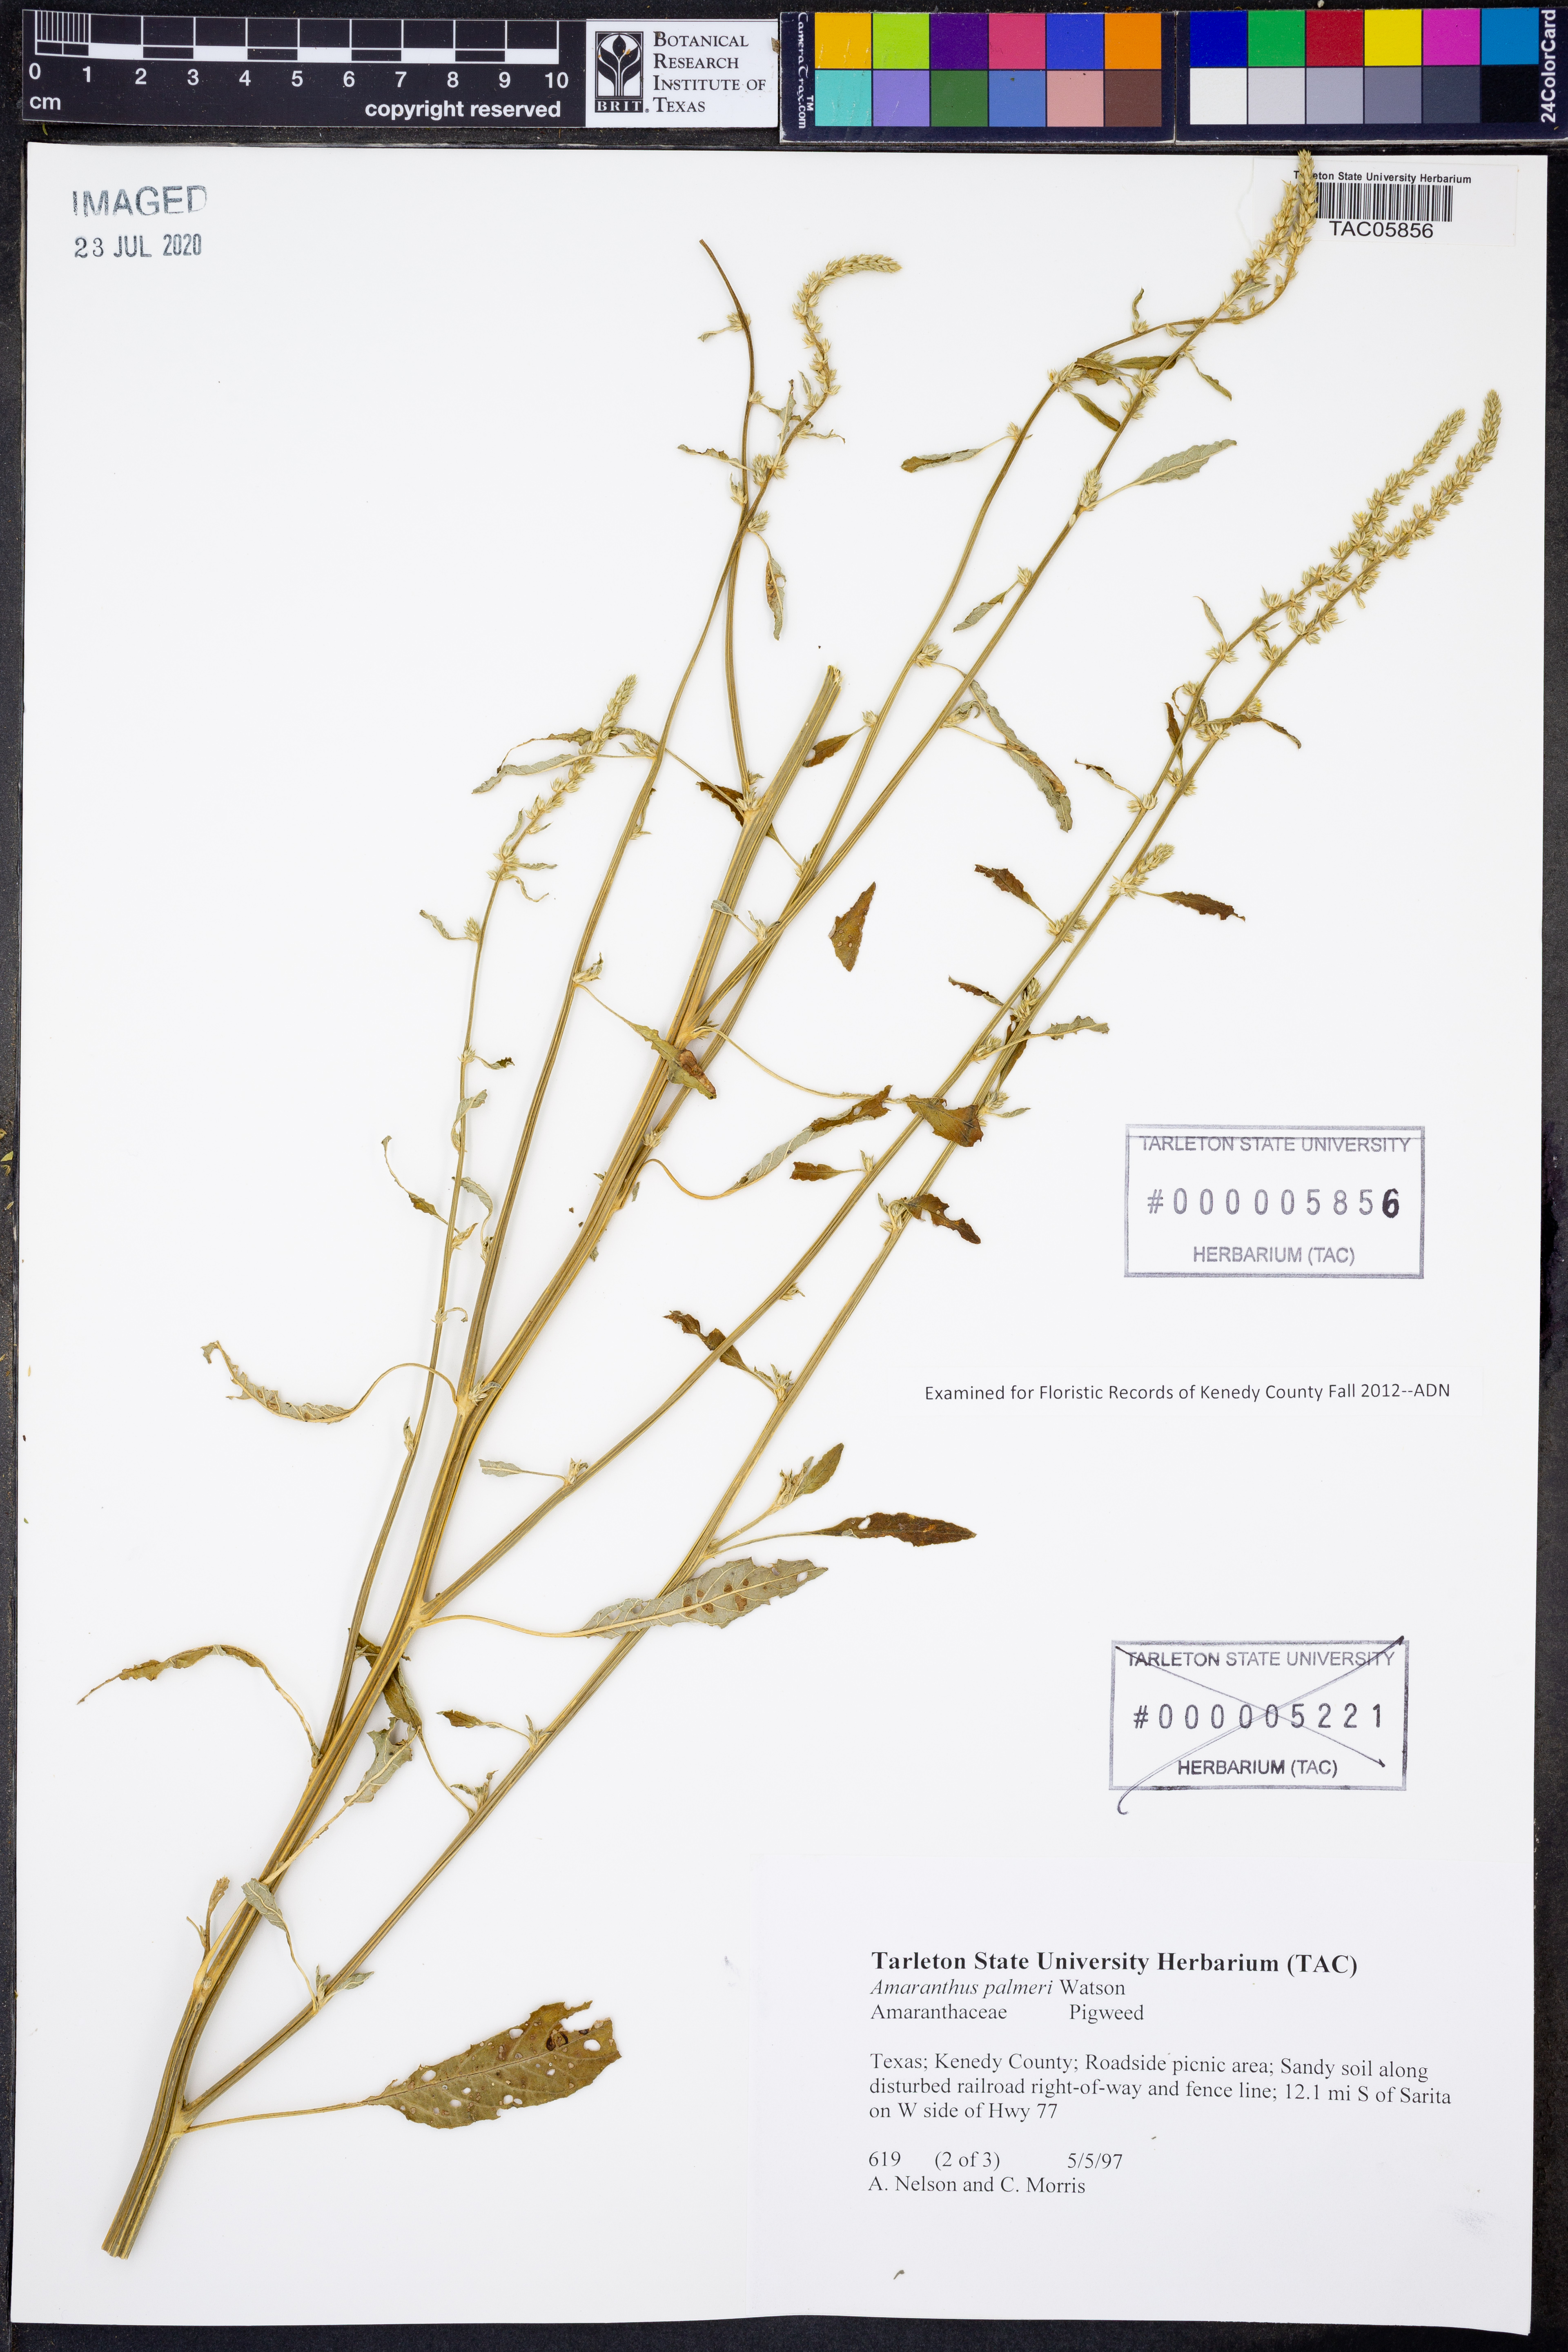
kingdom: Plantae
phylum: Tracheophyta
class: Magnoliopsida
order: Caryophyllales
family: Amaranthaceae
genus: Amaranthus
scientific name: Amaranthus palmeri
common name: Dioecious amaranth
